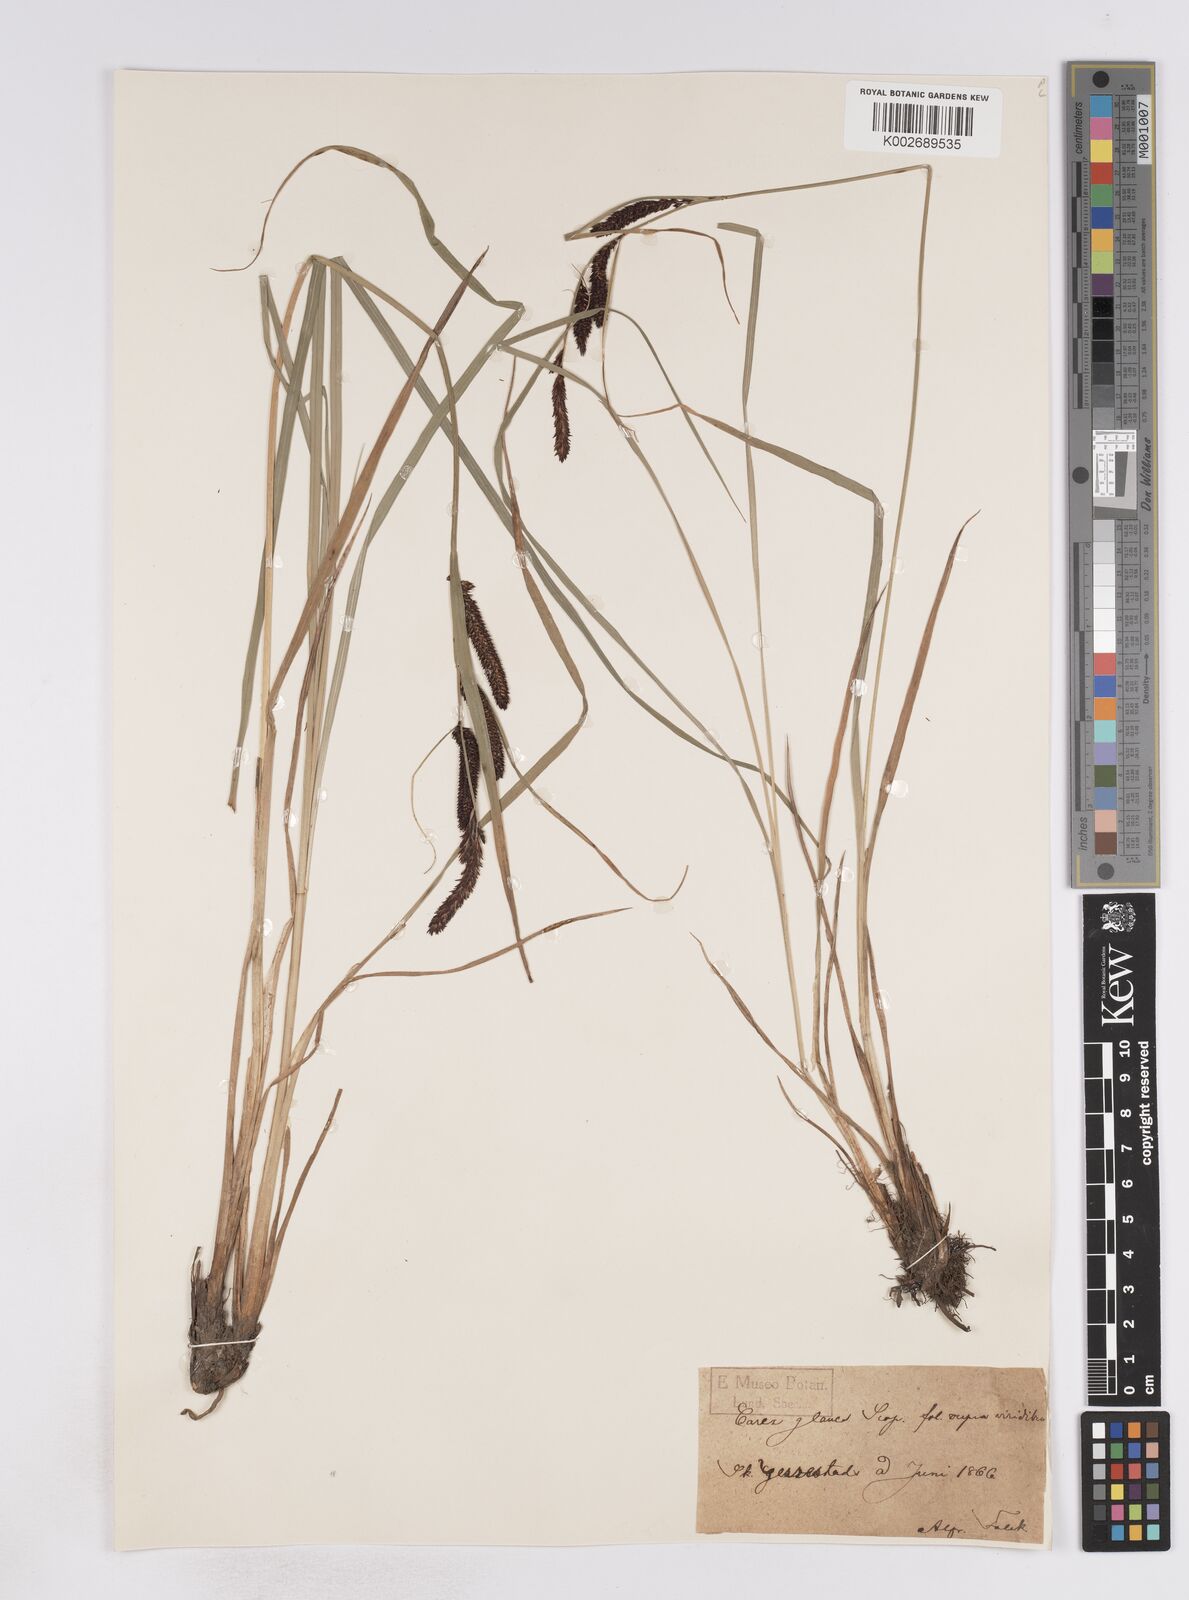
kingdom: Plantae
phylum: Tracheophyta
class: Liliopsida
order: Poales
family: Cyperaceae
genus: Carex
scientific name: Carex flacca
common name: Glaucous sedge
